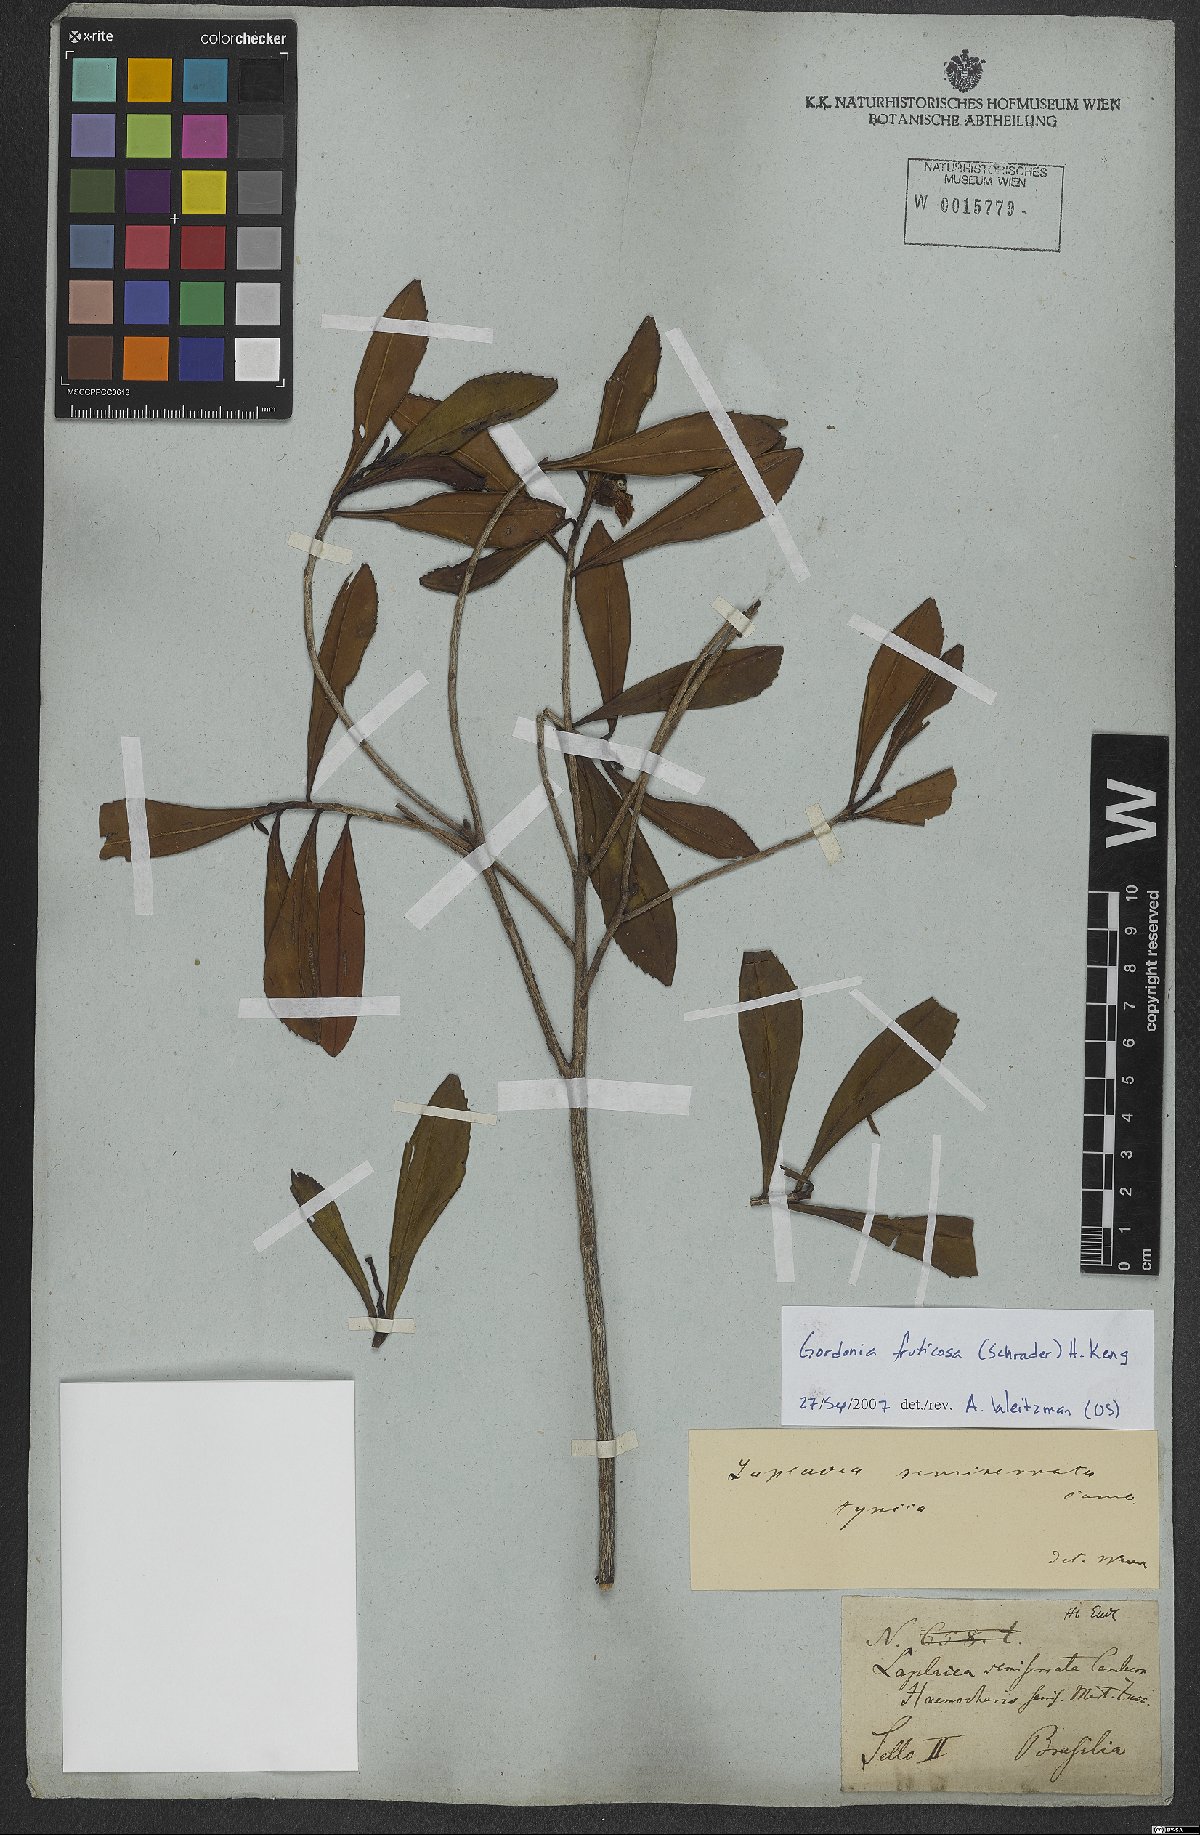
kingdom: Plantae
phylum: Tracheophyta
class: Magnoliopsida
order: Ericales
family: Theaceae
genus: Gordonia
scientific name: Gordonia fruticosa
